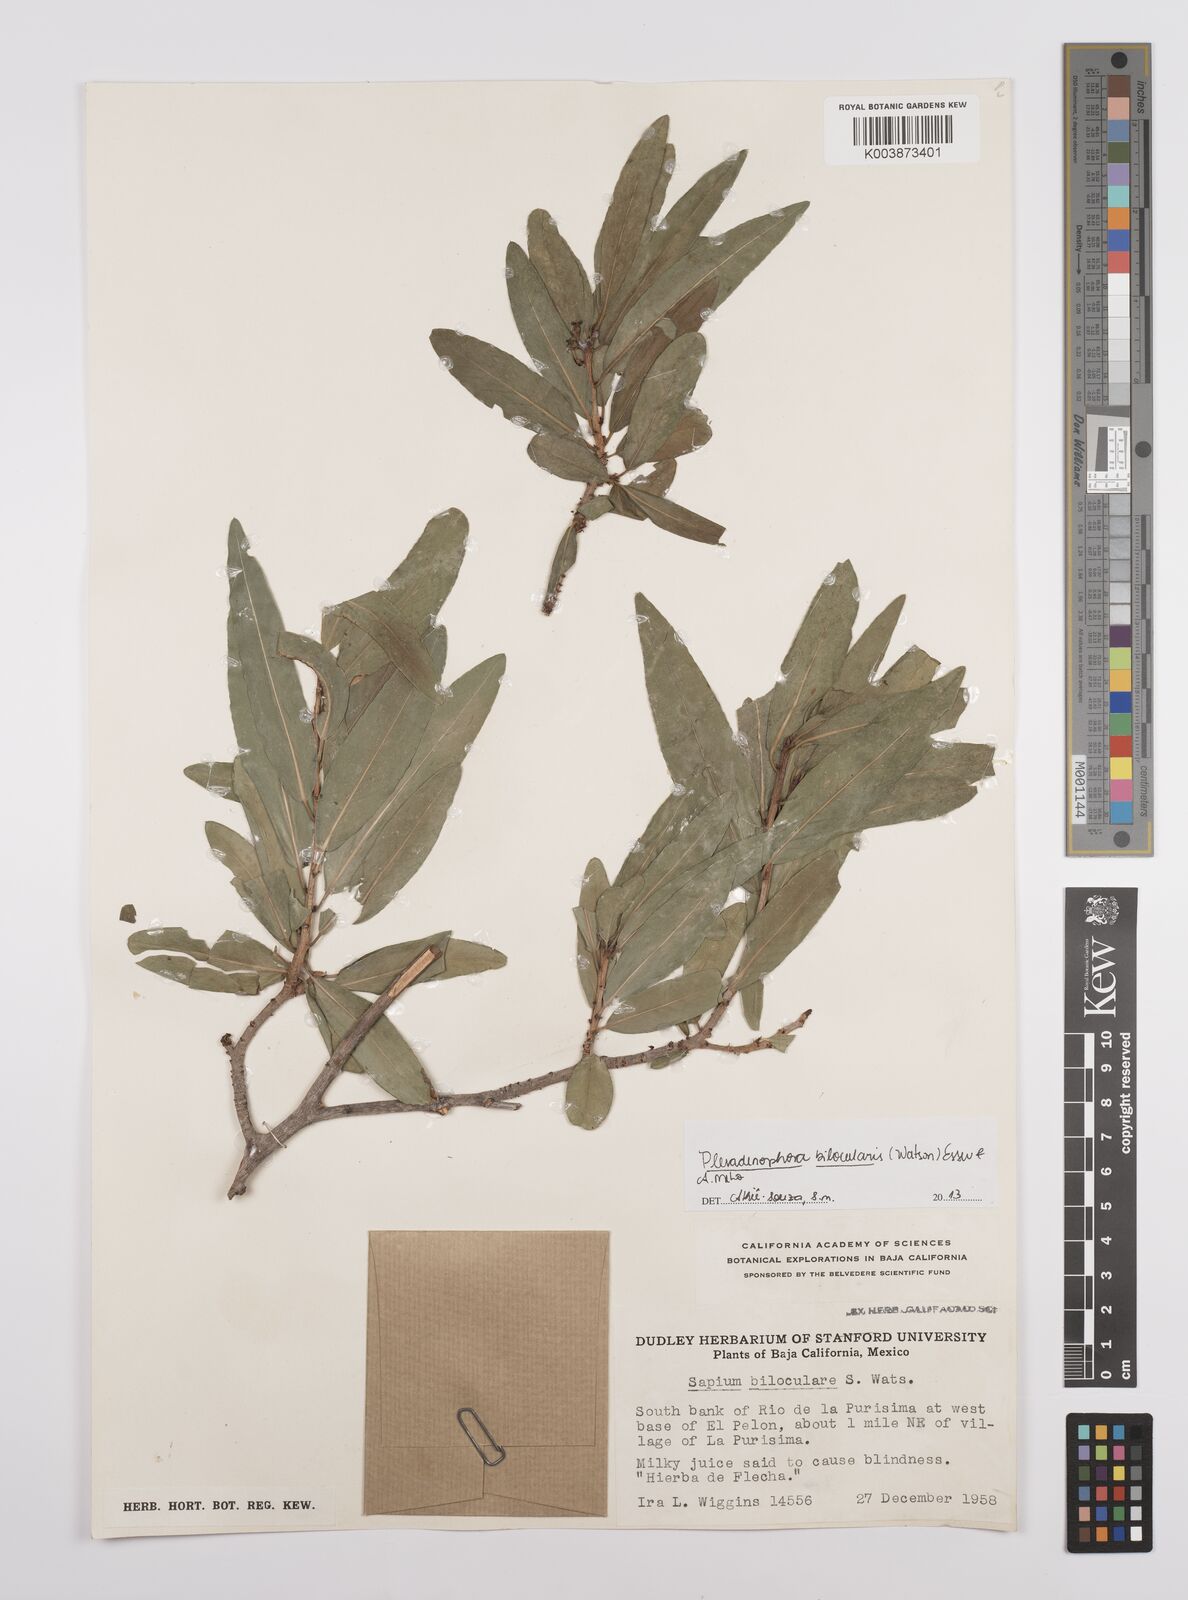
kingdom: Plantae
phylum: Tracheophyta
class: Magnoliopsida
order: Malpighiales
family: Euphorbiaceae
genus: Pleradenophora
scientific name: Pleradenophora bilocularis
